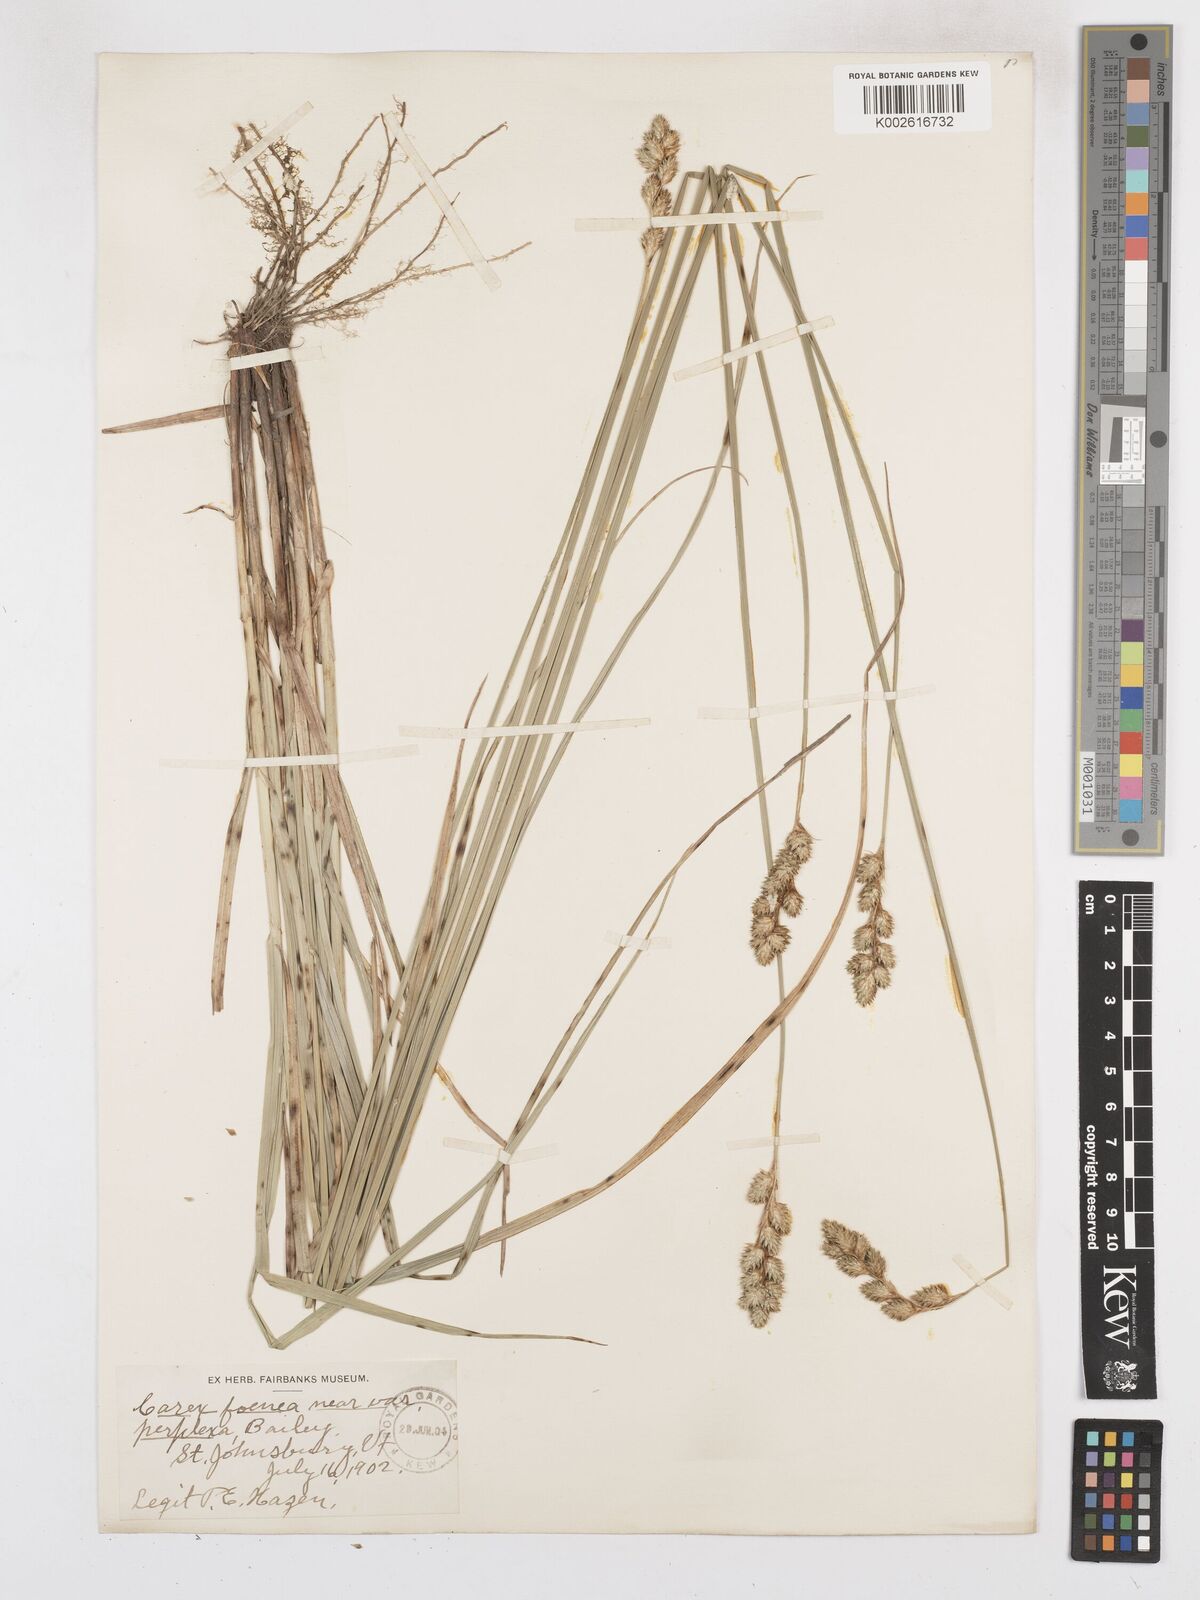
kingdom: Plantae
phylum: Tracheophyta
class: Liliopsida
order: Poales
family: Cyperaceae
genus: Carex
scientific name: Carex argyrantha
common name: Silvery-flowered sedge
